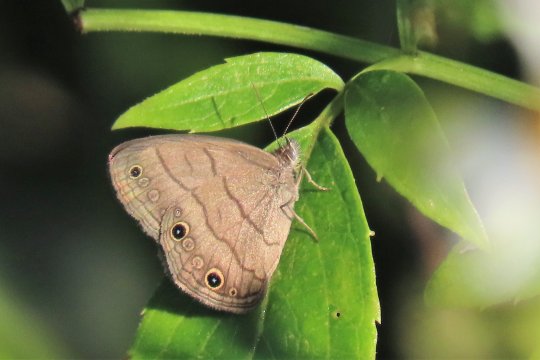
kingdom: Animalia
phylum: Arthropoda
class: Insecta
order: Lepidoptera
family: Nymphalidae
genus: Hermeuptychia
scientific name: Hermeuptychia hermes
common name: Carolina Satyr
